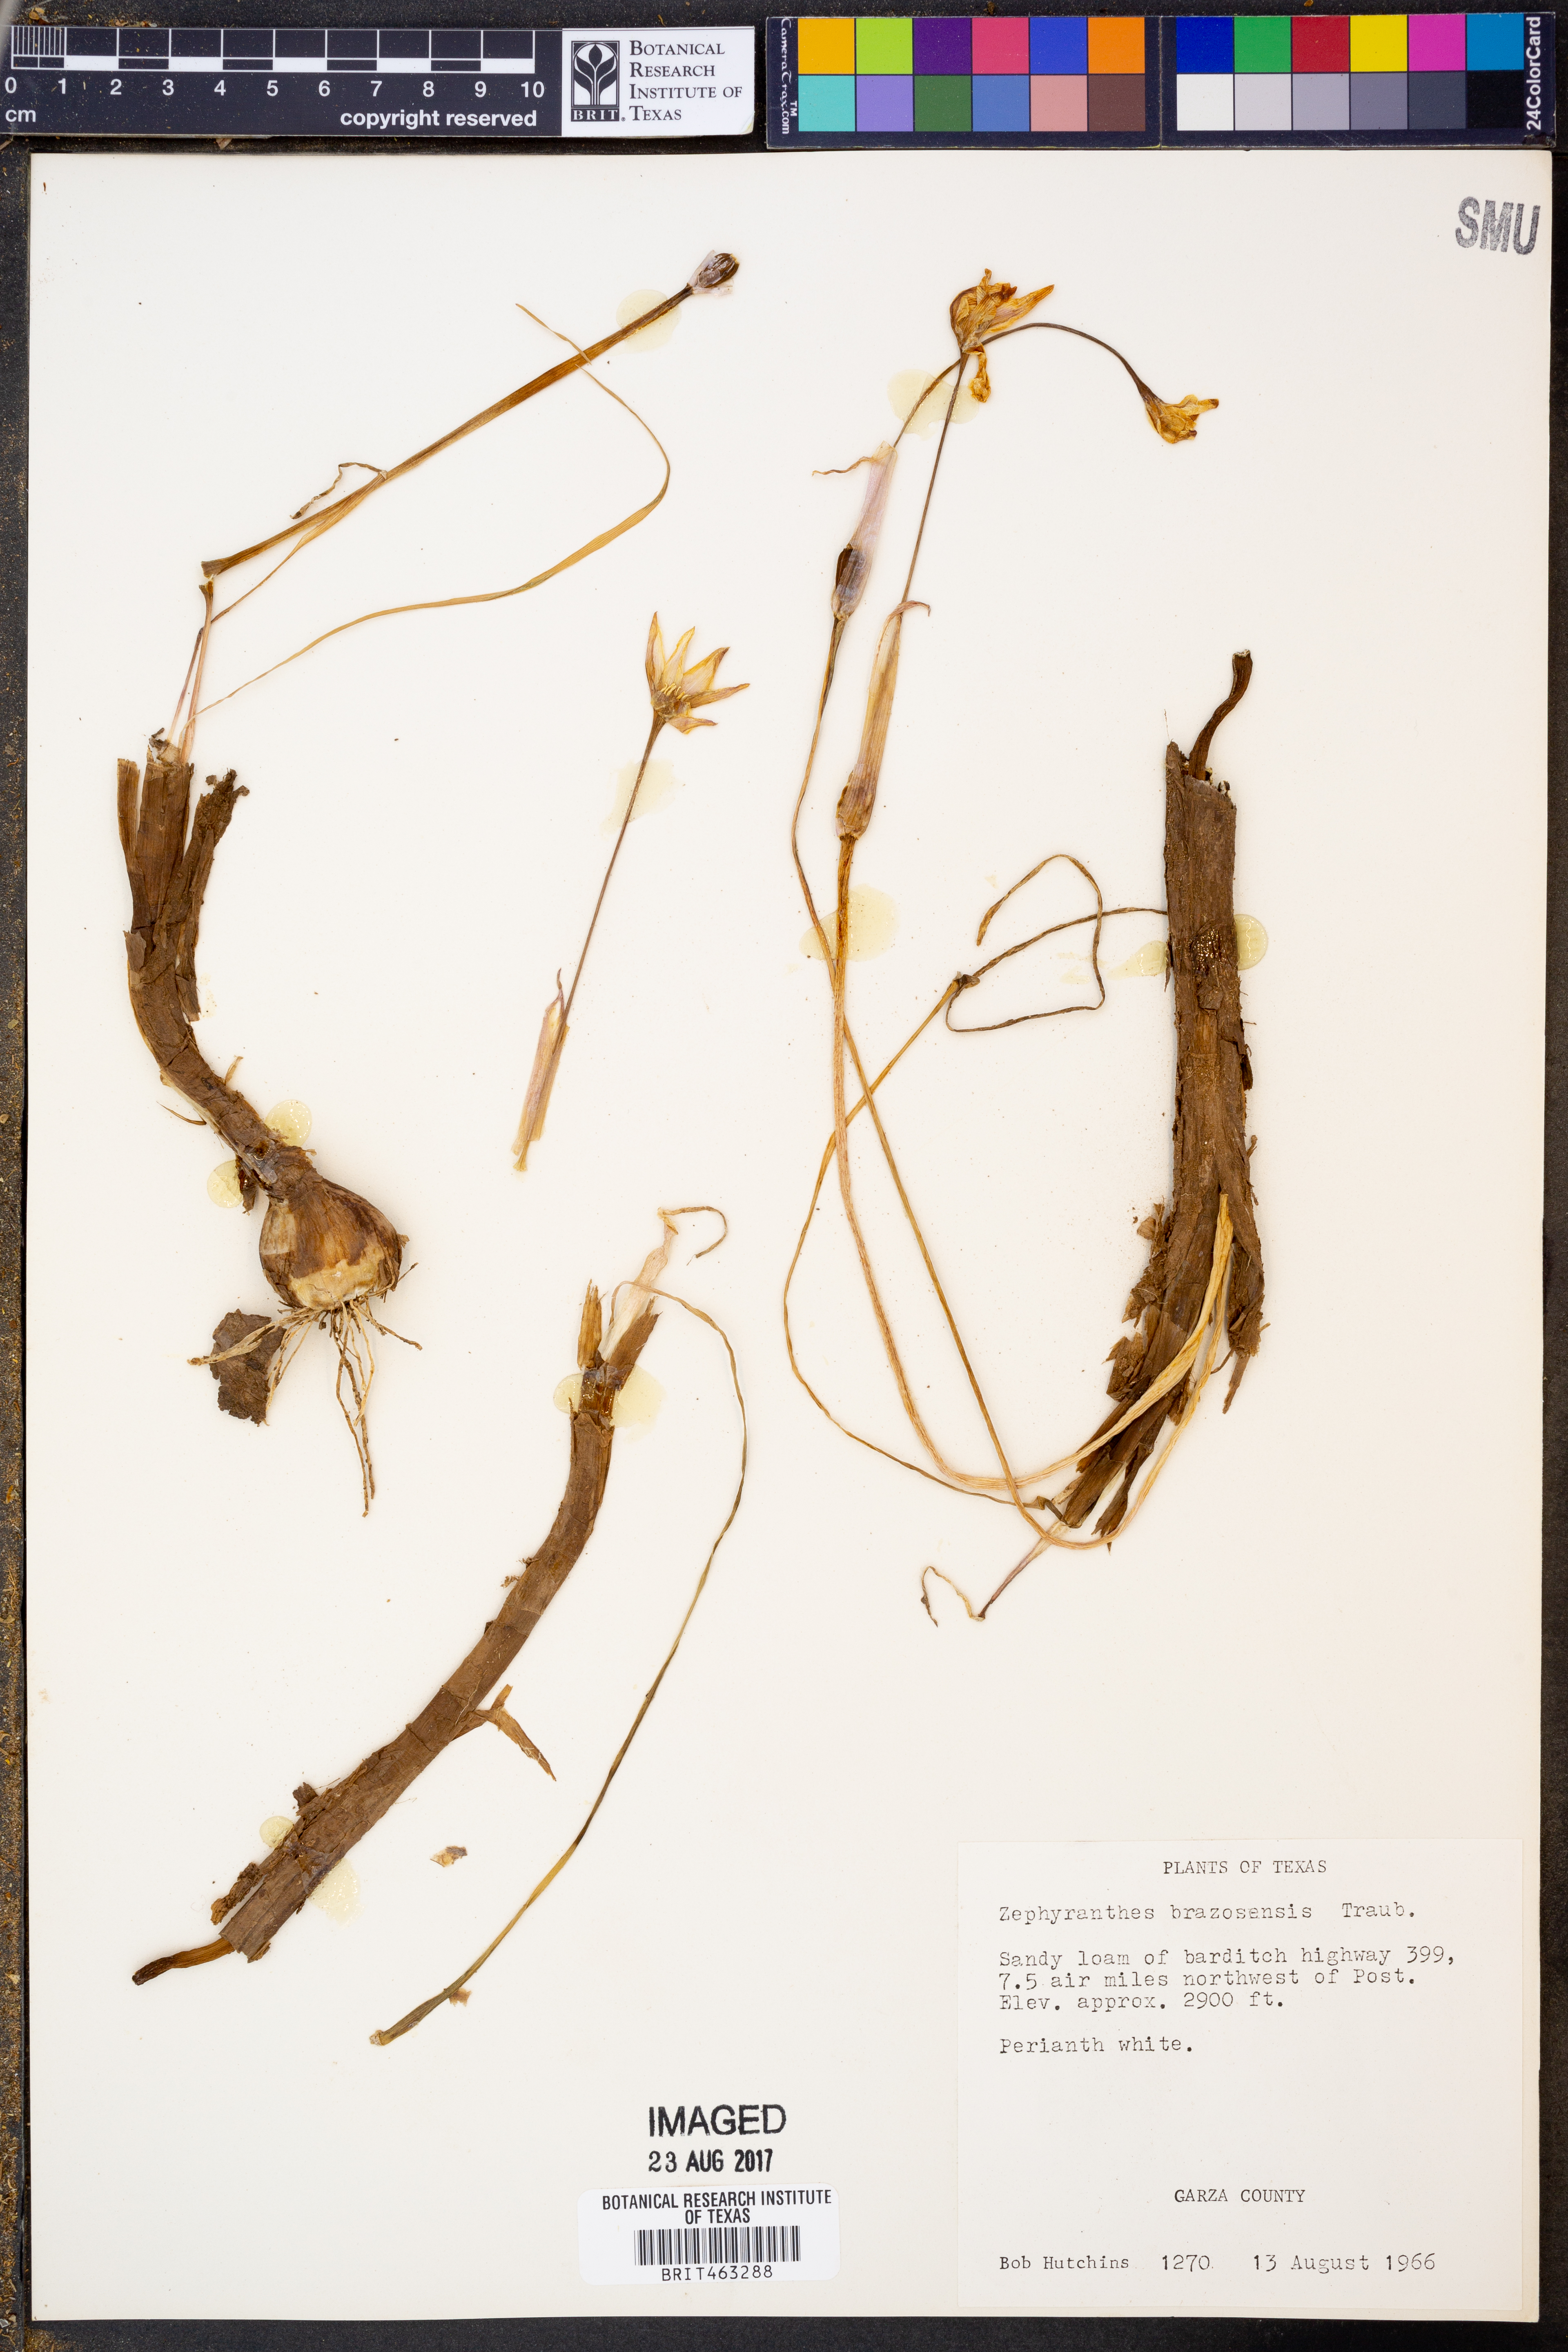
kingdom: Plantae
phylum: Tracheophyta
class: Liliopsida
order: Asparagales
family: Amaryllidaceae
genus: Zephyranthes
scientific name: Zephyranthes chlorosolen
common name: Evening rain-lily
